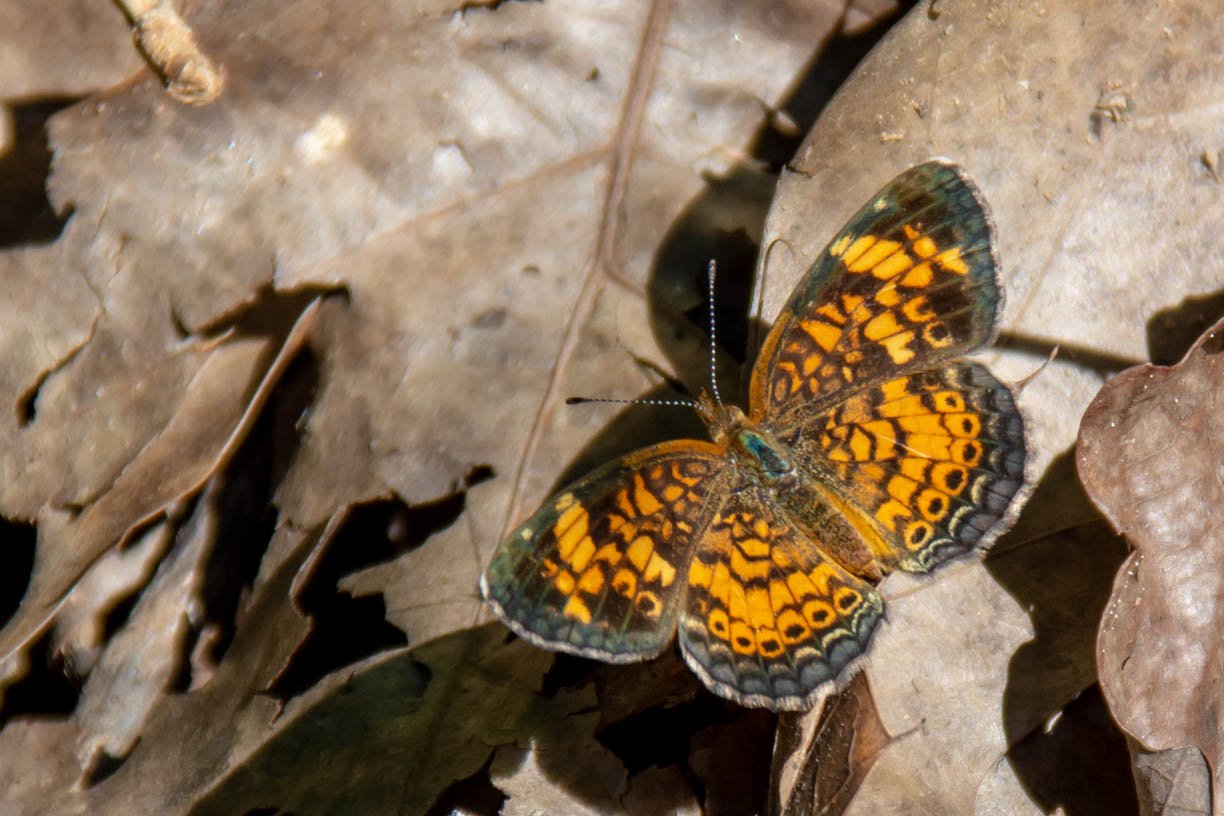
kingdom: Animalia
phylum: Arthropoda
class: Insecta
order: Lepidoptera
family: Nymphalidae
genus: Phyciodes
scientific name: Phyciodes tharos
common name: Pearl Crescent
